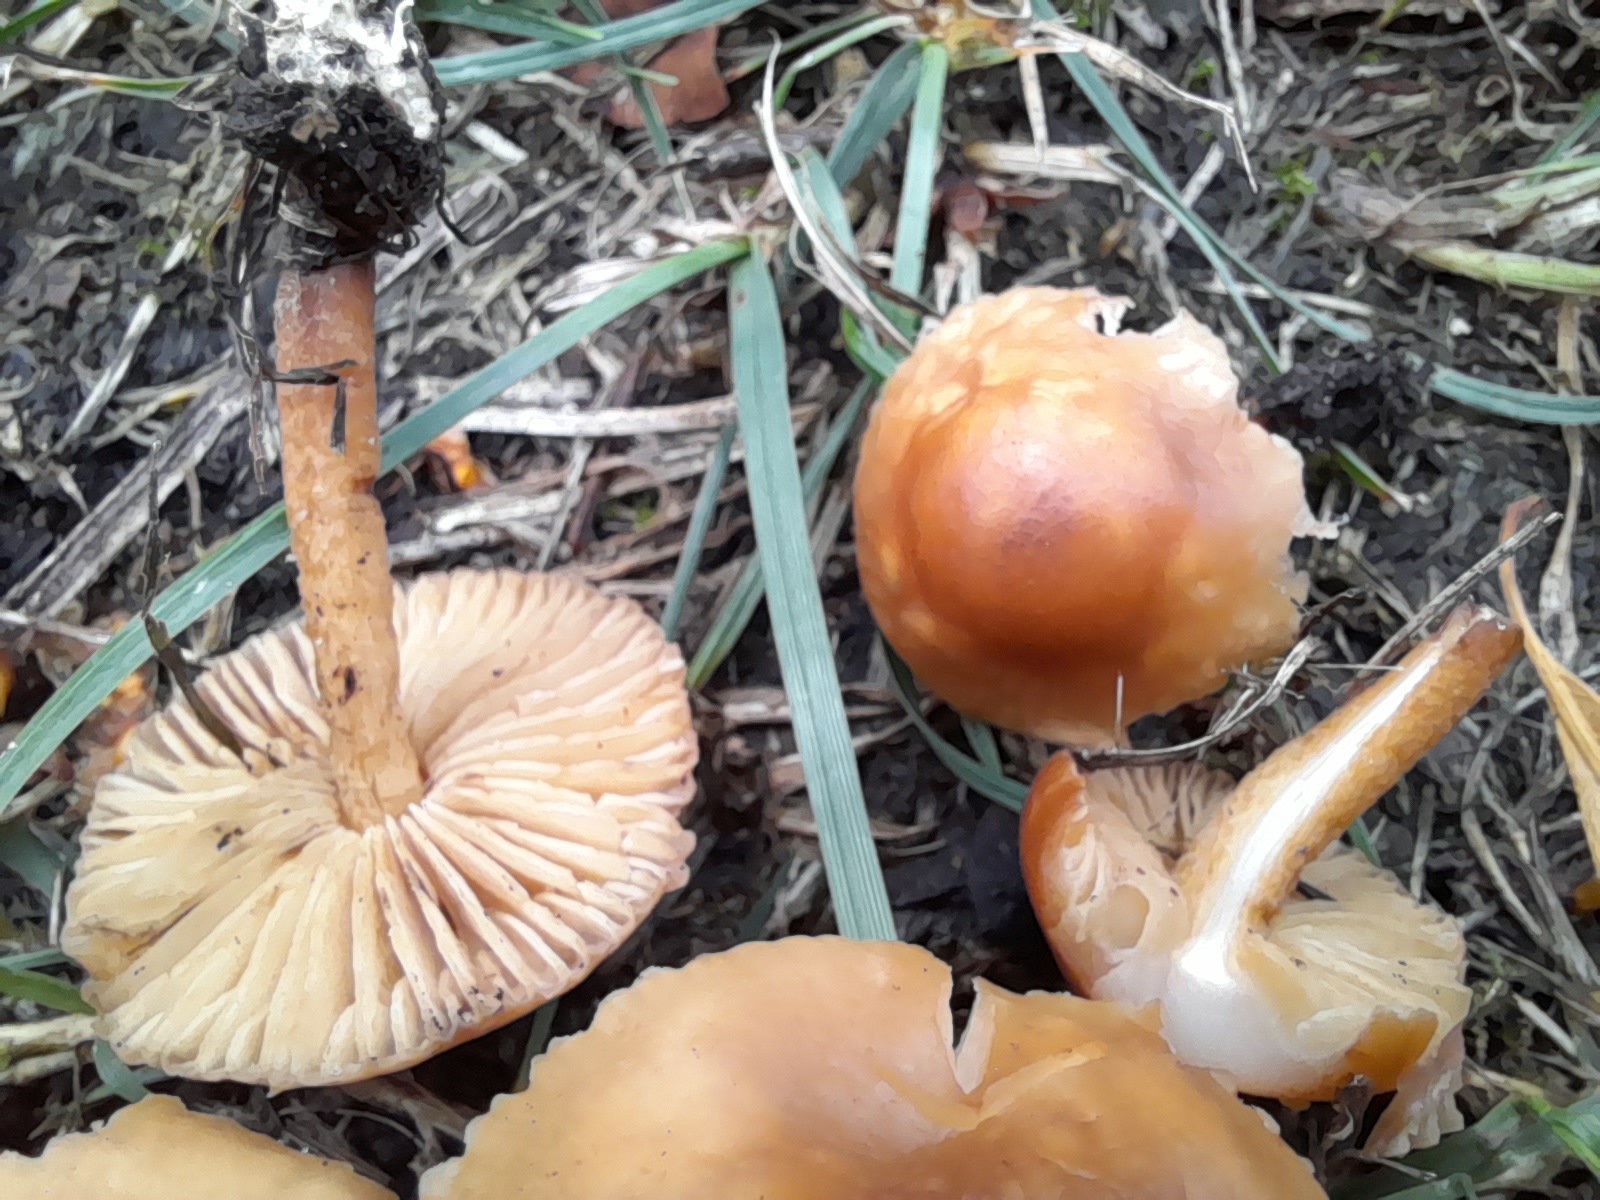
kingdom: Fungi
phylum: Basidiomycota
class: Agaricomycetes
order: Agaricales
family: Marasmiaceae
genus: Marasmius
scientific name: Marasmius oreades
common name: elledans-bruskhat
